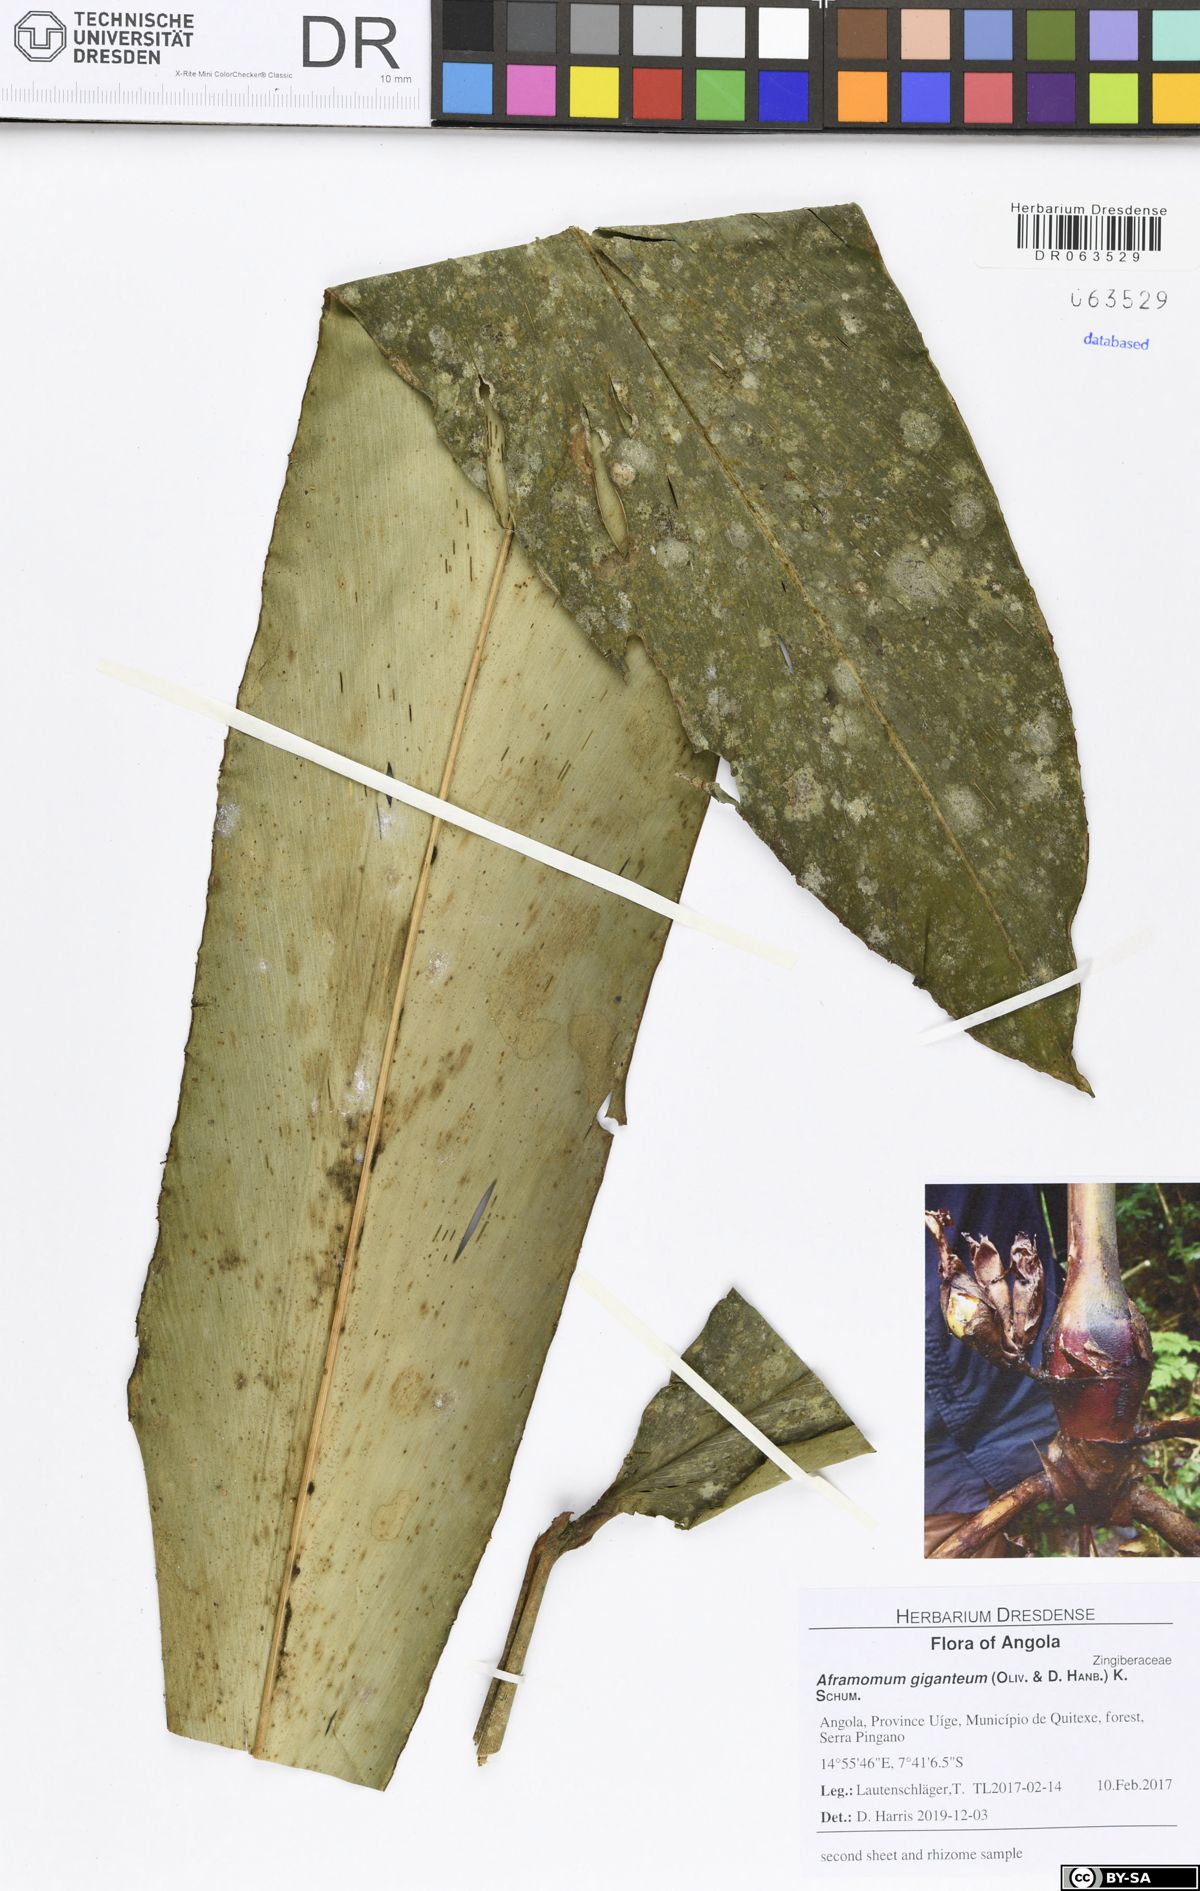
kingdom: Plantae
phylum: Tracheophyta
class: Liliopsida
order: Zingiberales
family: Zingiberaceae
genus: Aframomum
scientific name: Aframomum giganteum
